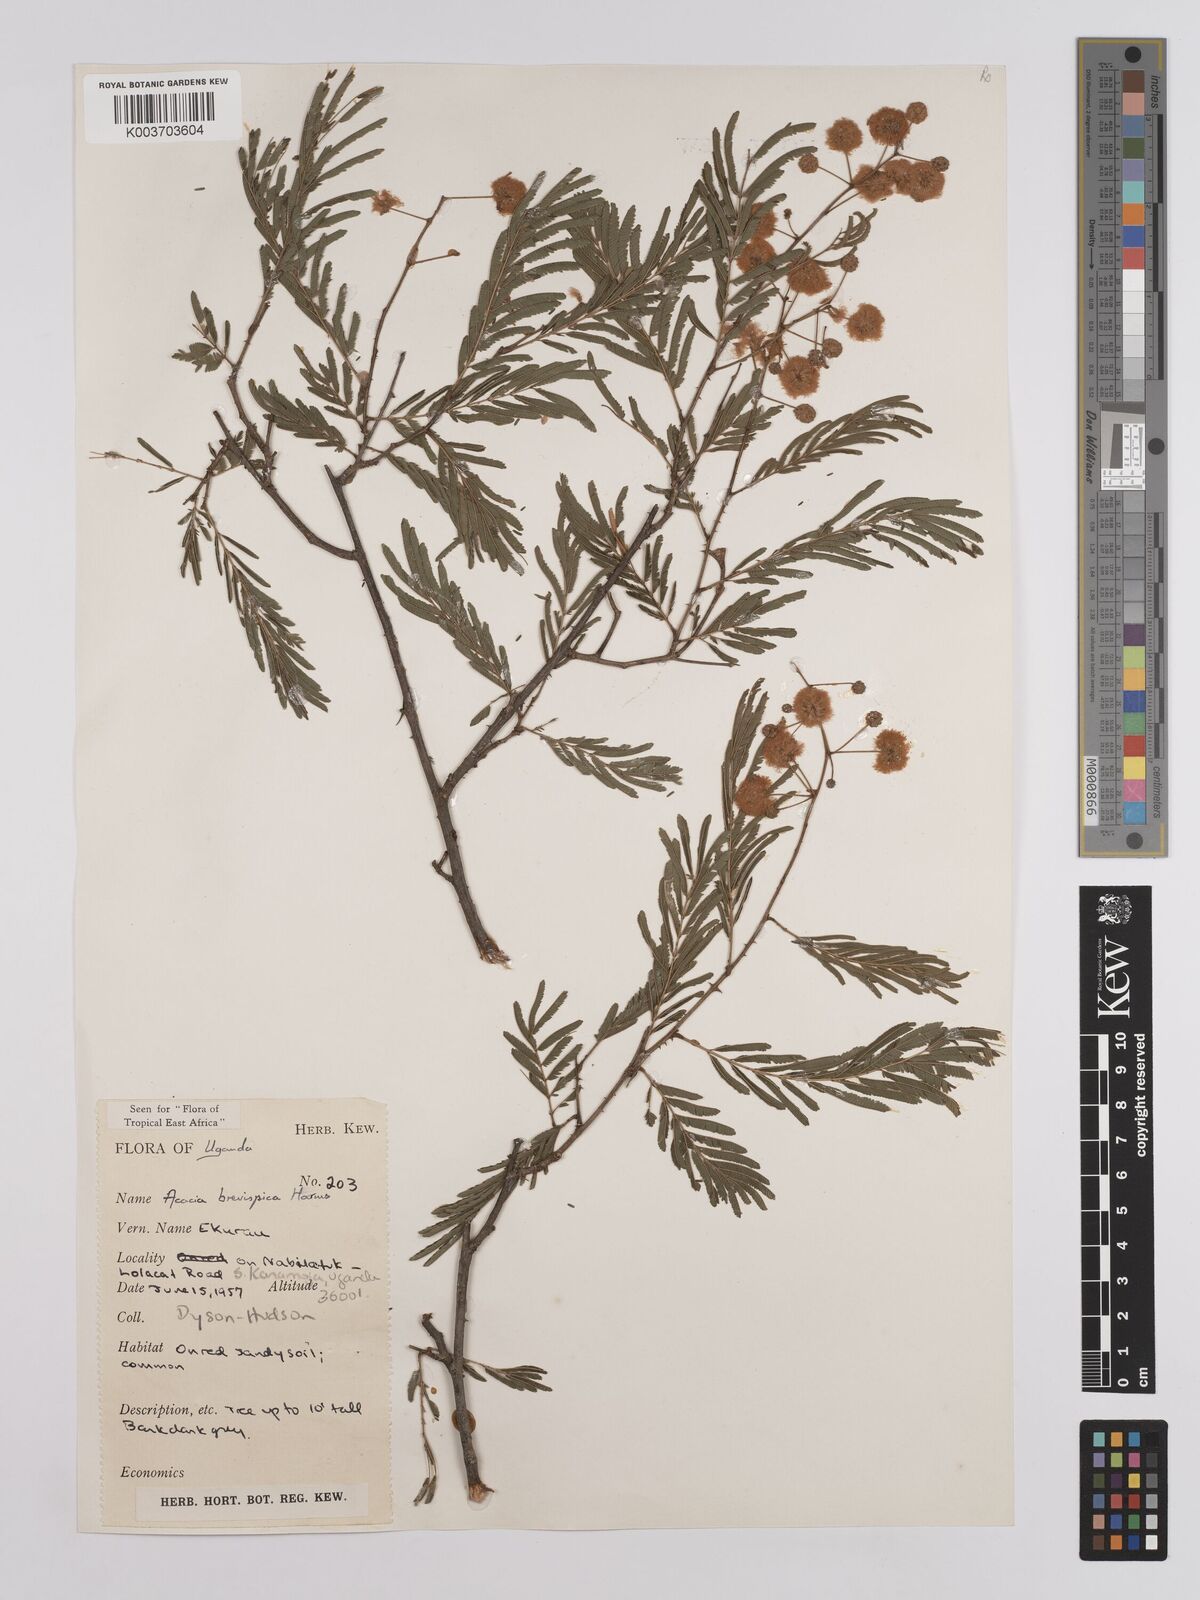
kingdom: Plantae
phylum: Tracheophyta
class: Magnoliopsida
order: Fabales
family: Fabaceae
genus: Senegalia
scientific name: Senegalia brevispica
